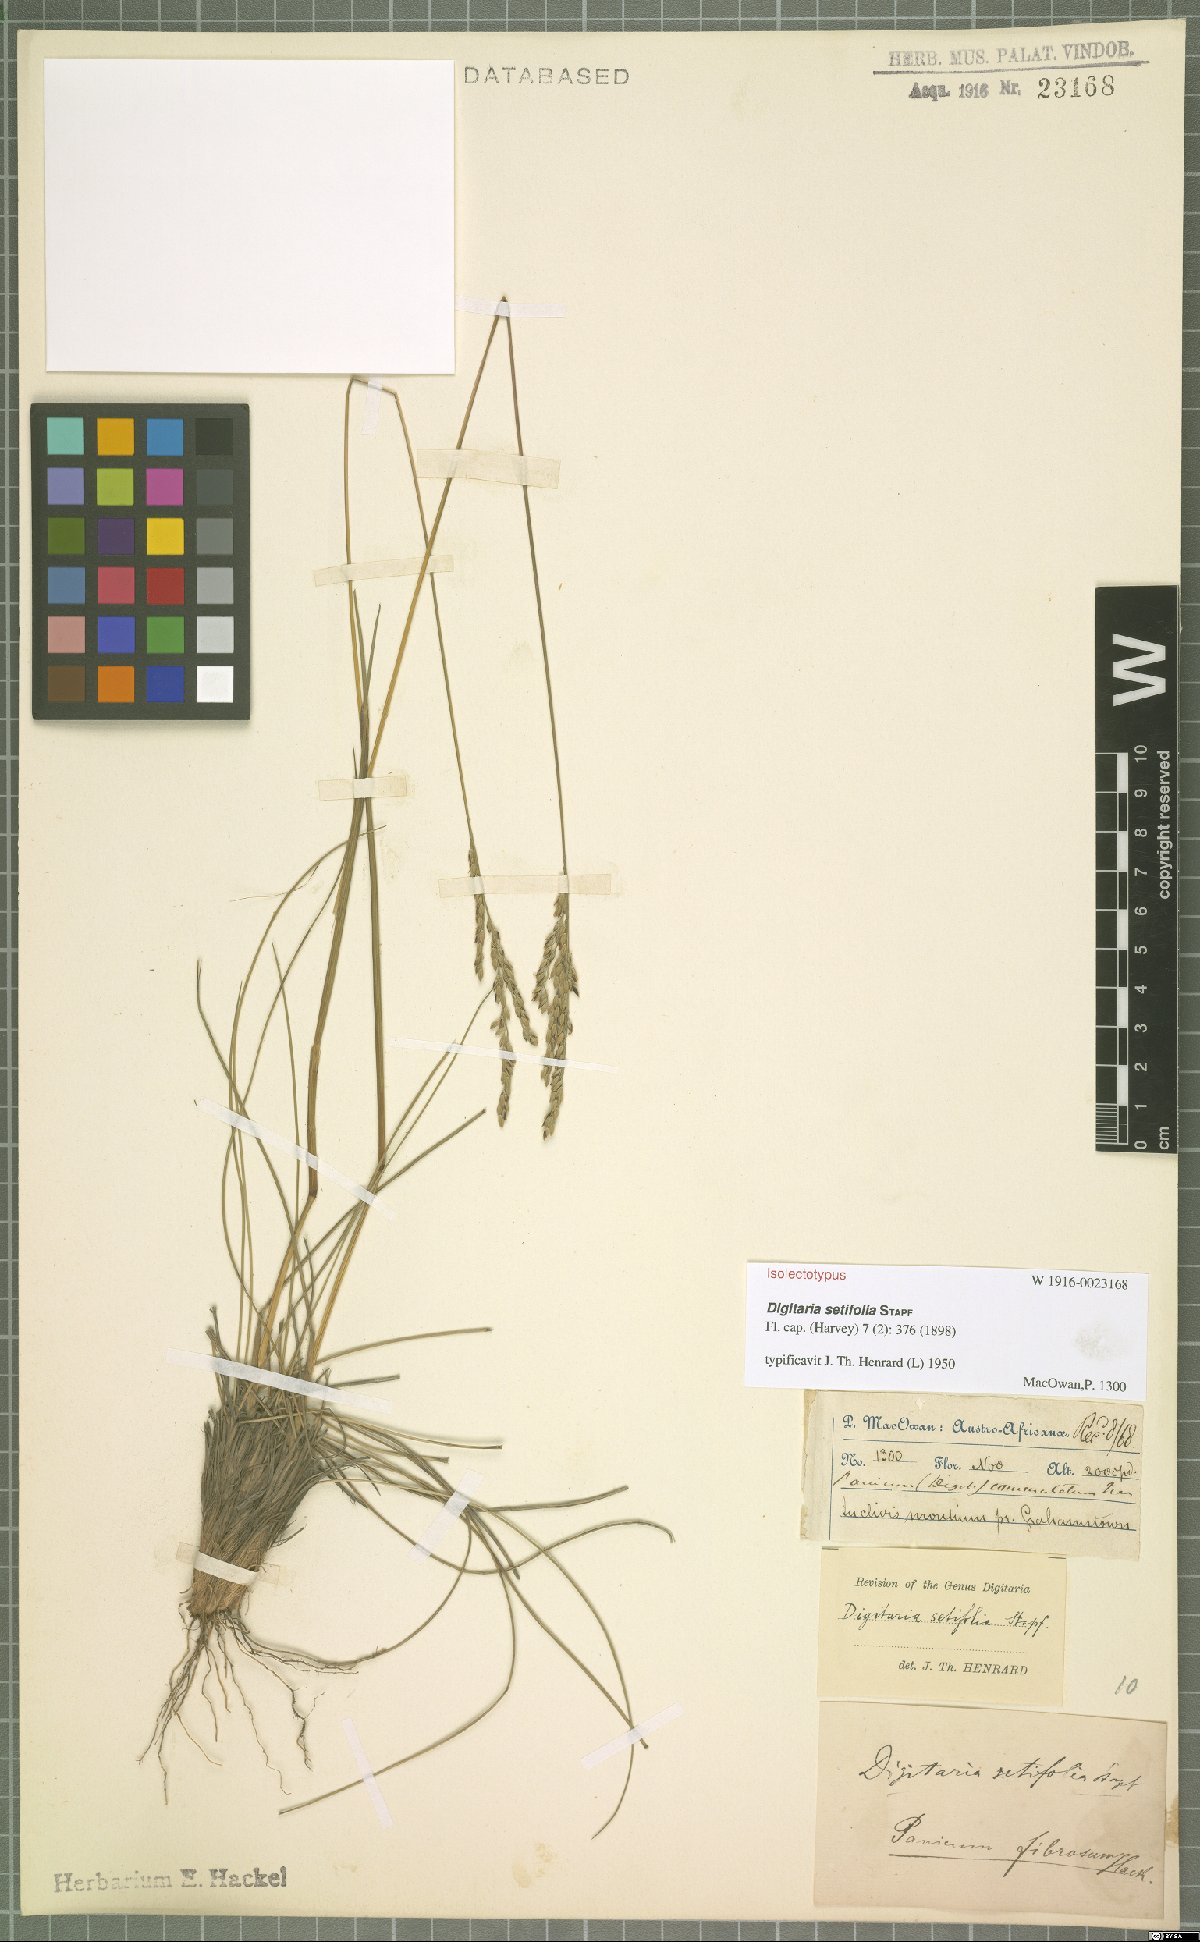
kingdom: Plantae
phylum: Tracheophyta
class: Liliopsida
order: Poales
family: Poaceae
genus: Digitaria
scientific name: Digitaria setifolia
